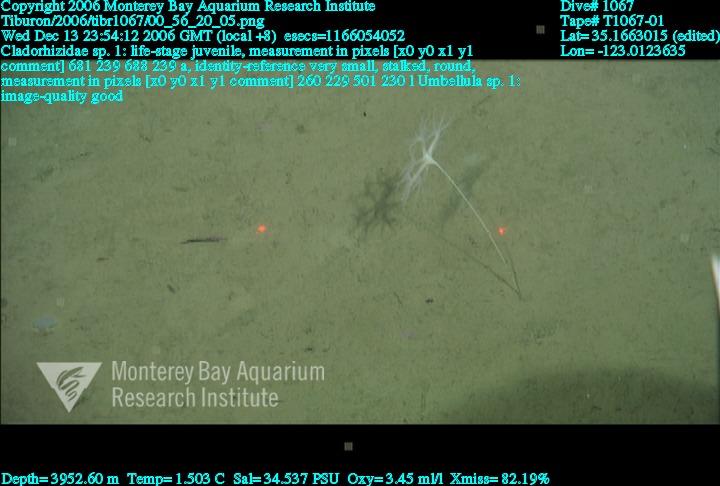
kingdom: Animalia
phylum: Porifera
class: Demospongiae
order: Poecilosclerida
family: Cladorhizidae
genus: Cladorhiza
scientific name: Cladorhiza
